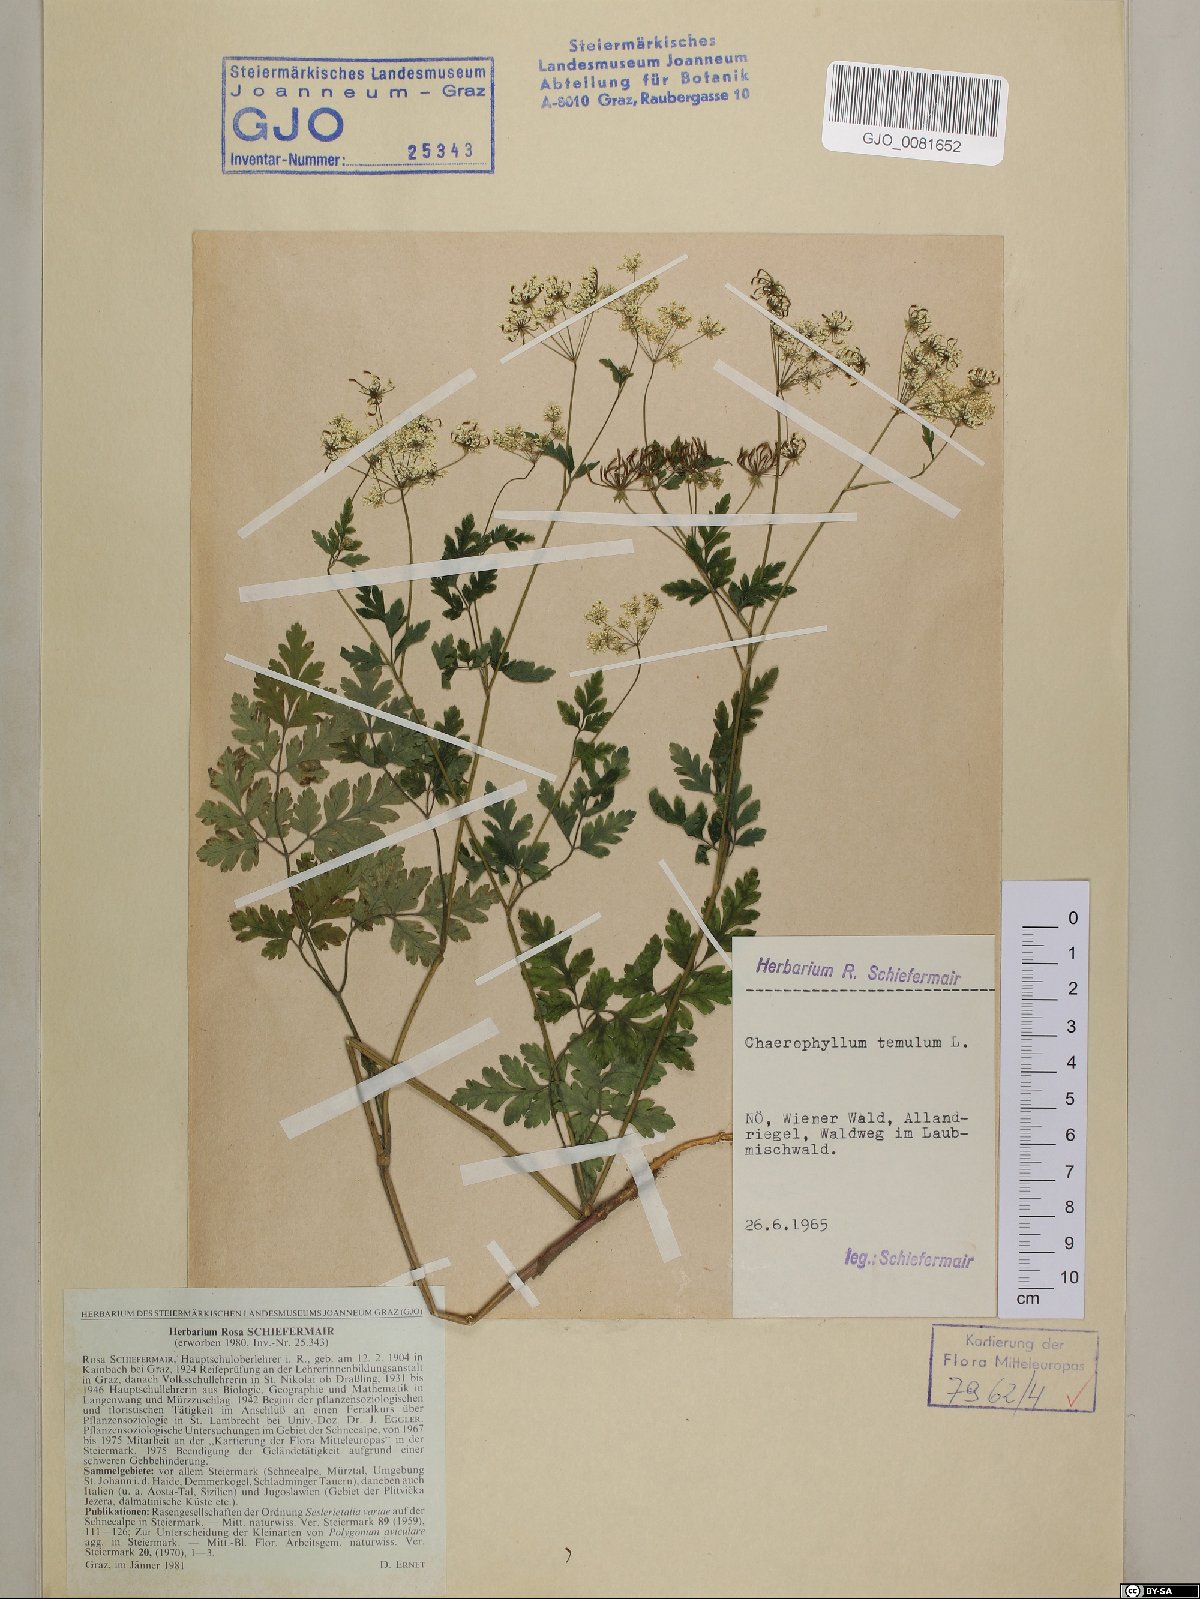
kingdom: Plantae
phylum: Tracheophyta
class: Magnoliopsida
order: Apiales
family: Apiaceae
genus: Chaerophyllum
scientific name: Chaerophyllum temulum
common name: Rough chervil
